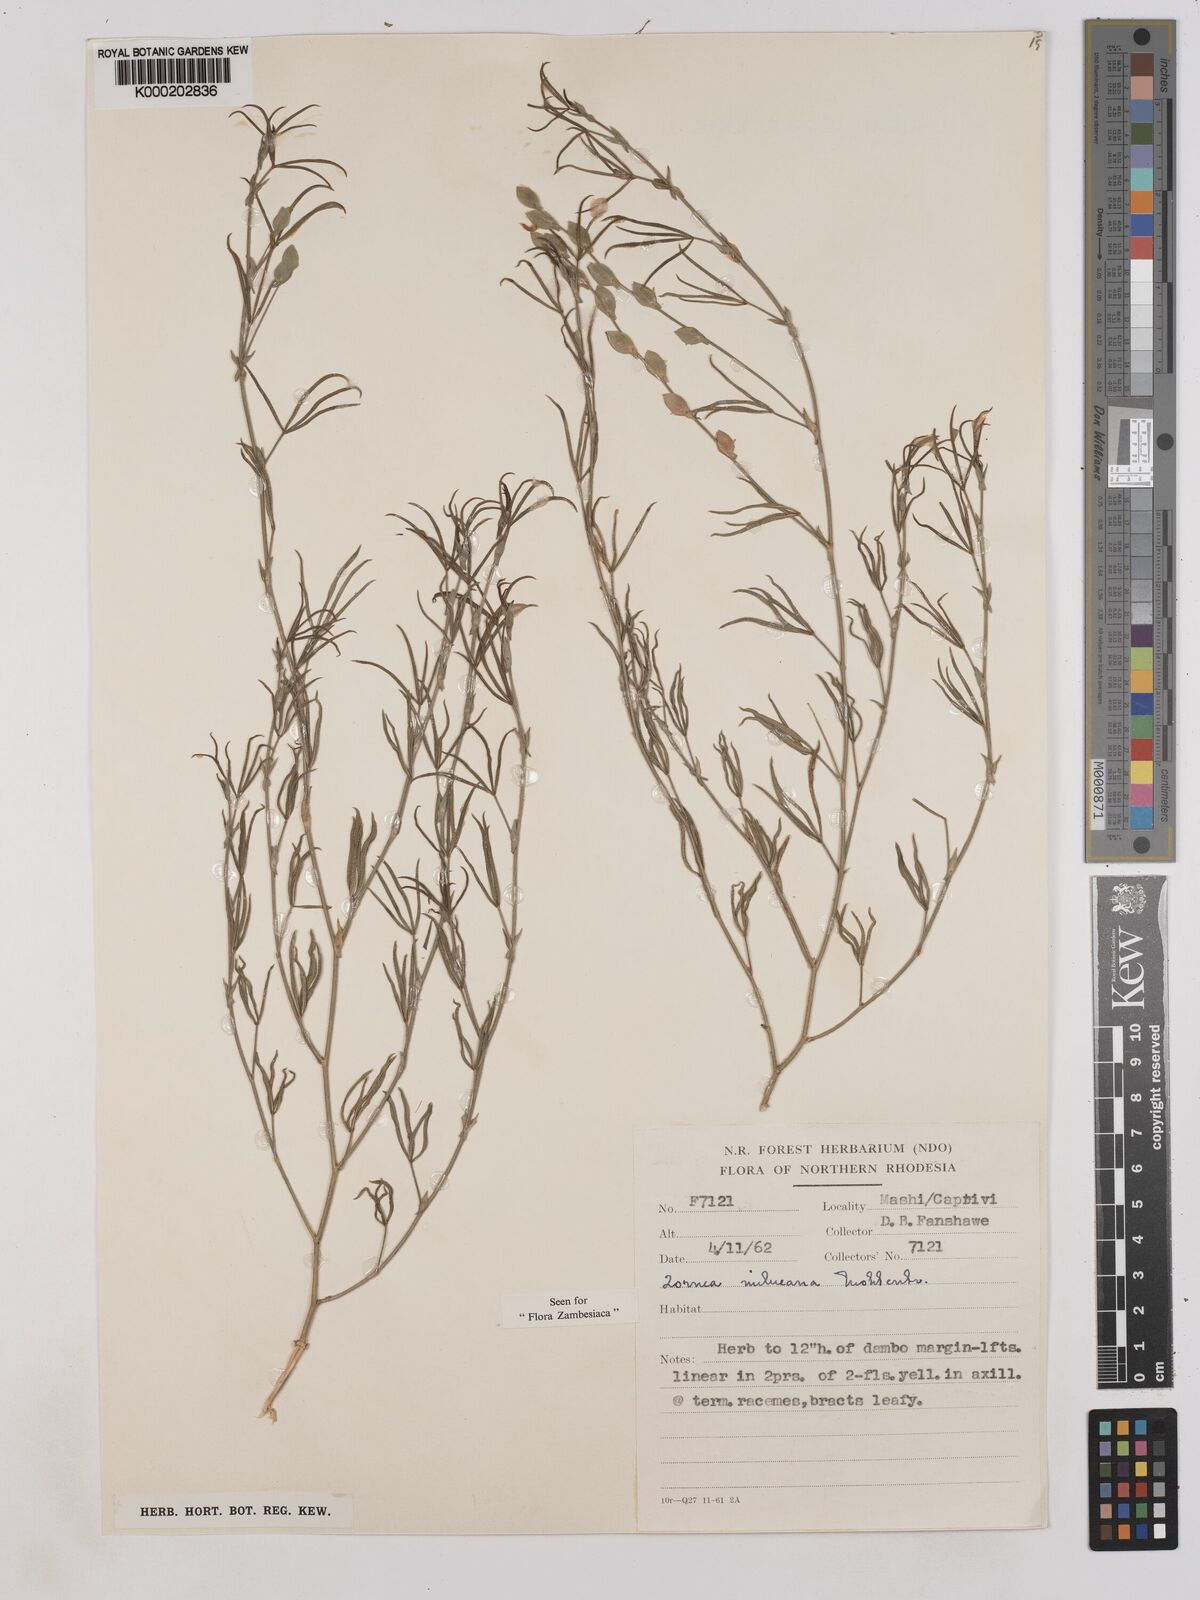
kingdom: Plantae
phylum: Tracheophyta
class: Magnoliopsida
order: Fabales
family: Fabaceae
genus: Zornia
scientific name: Zornia milneana
